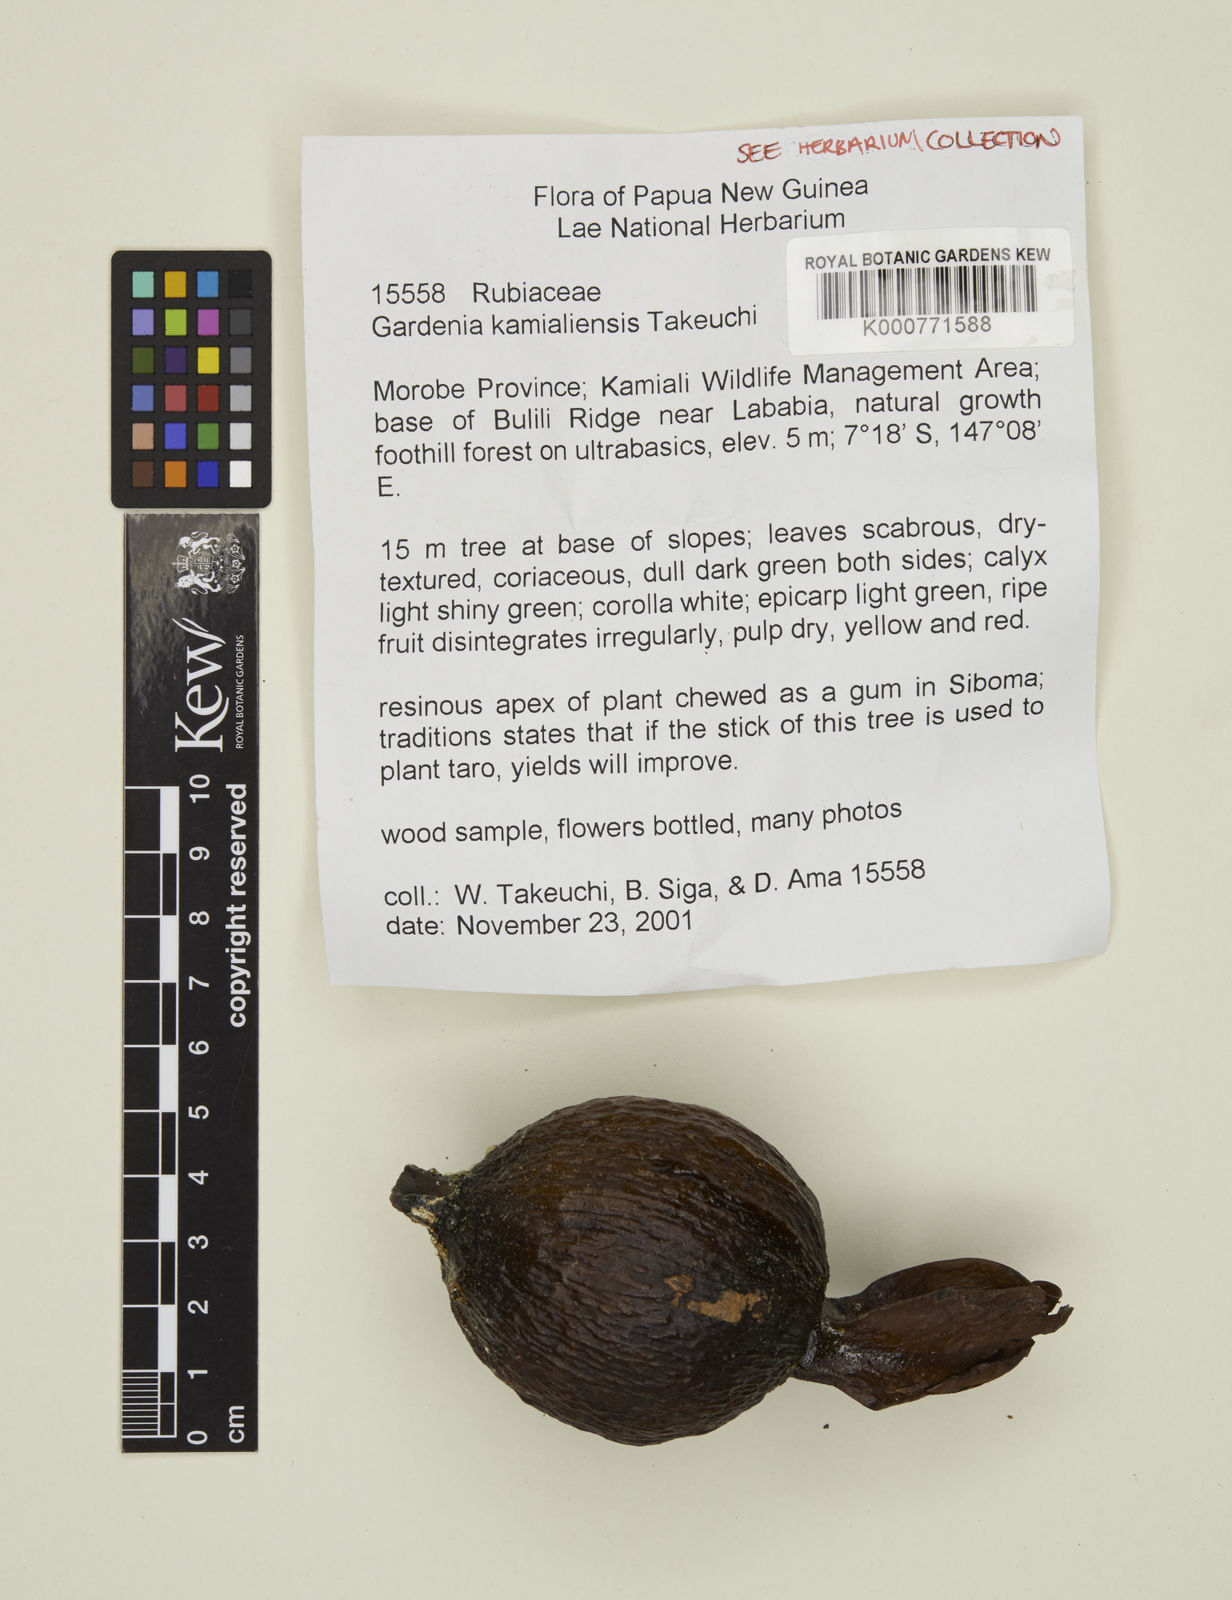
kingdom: Plantae
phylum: Tracheophyta
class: Magnoliopsida
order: Gentianales
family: Rubiaceae
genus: Gardenia
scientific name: Gardenia kamialiensis
